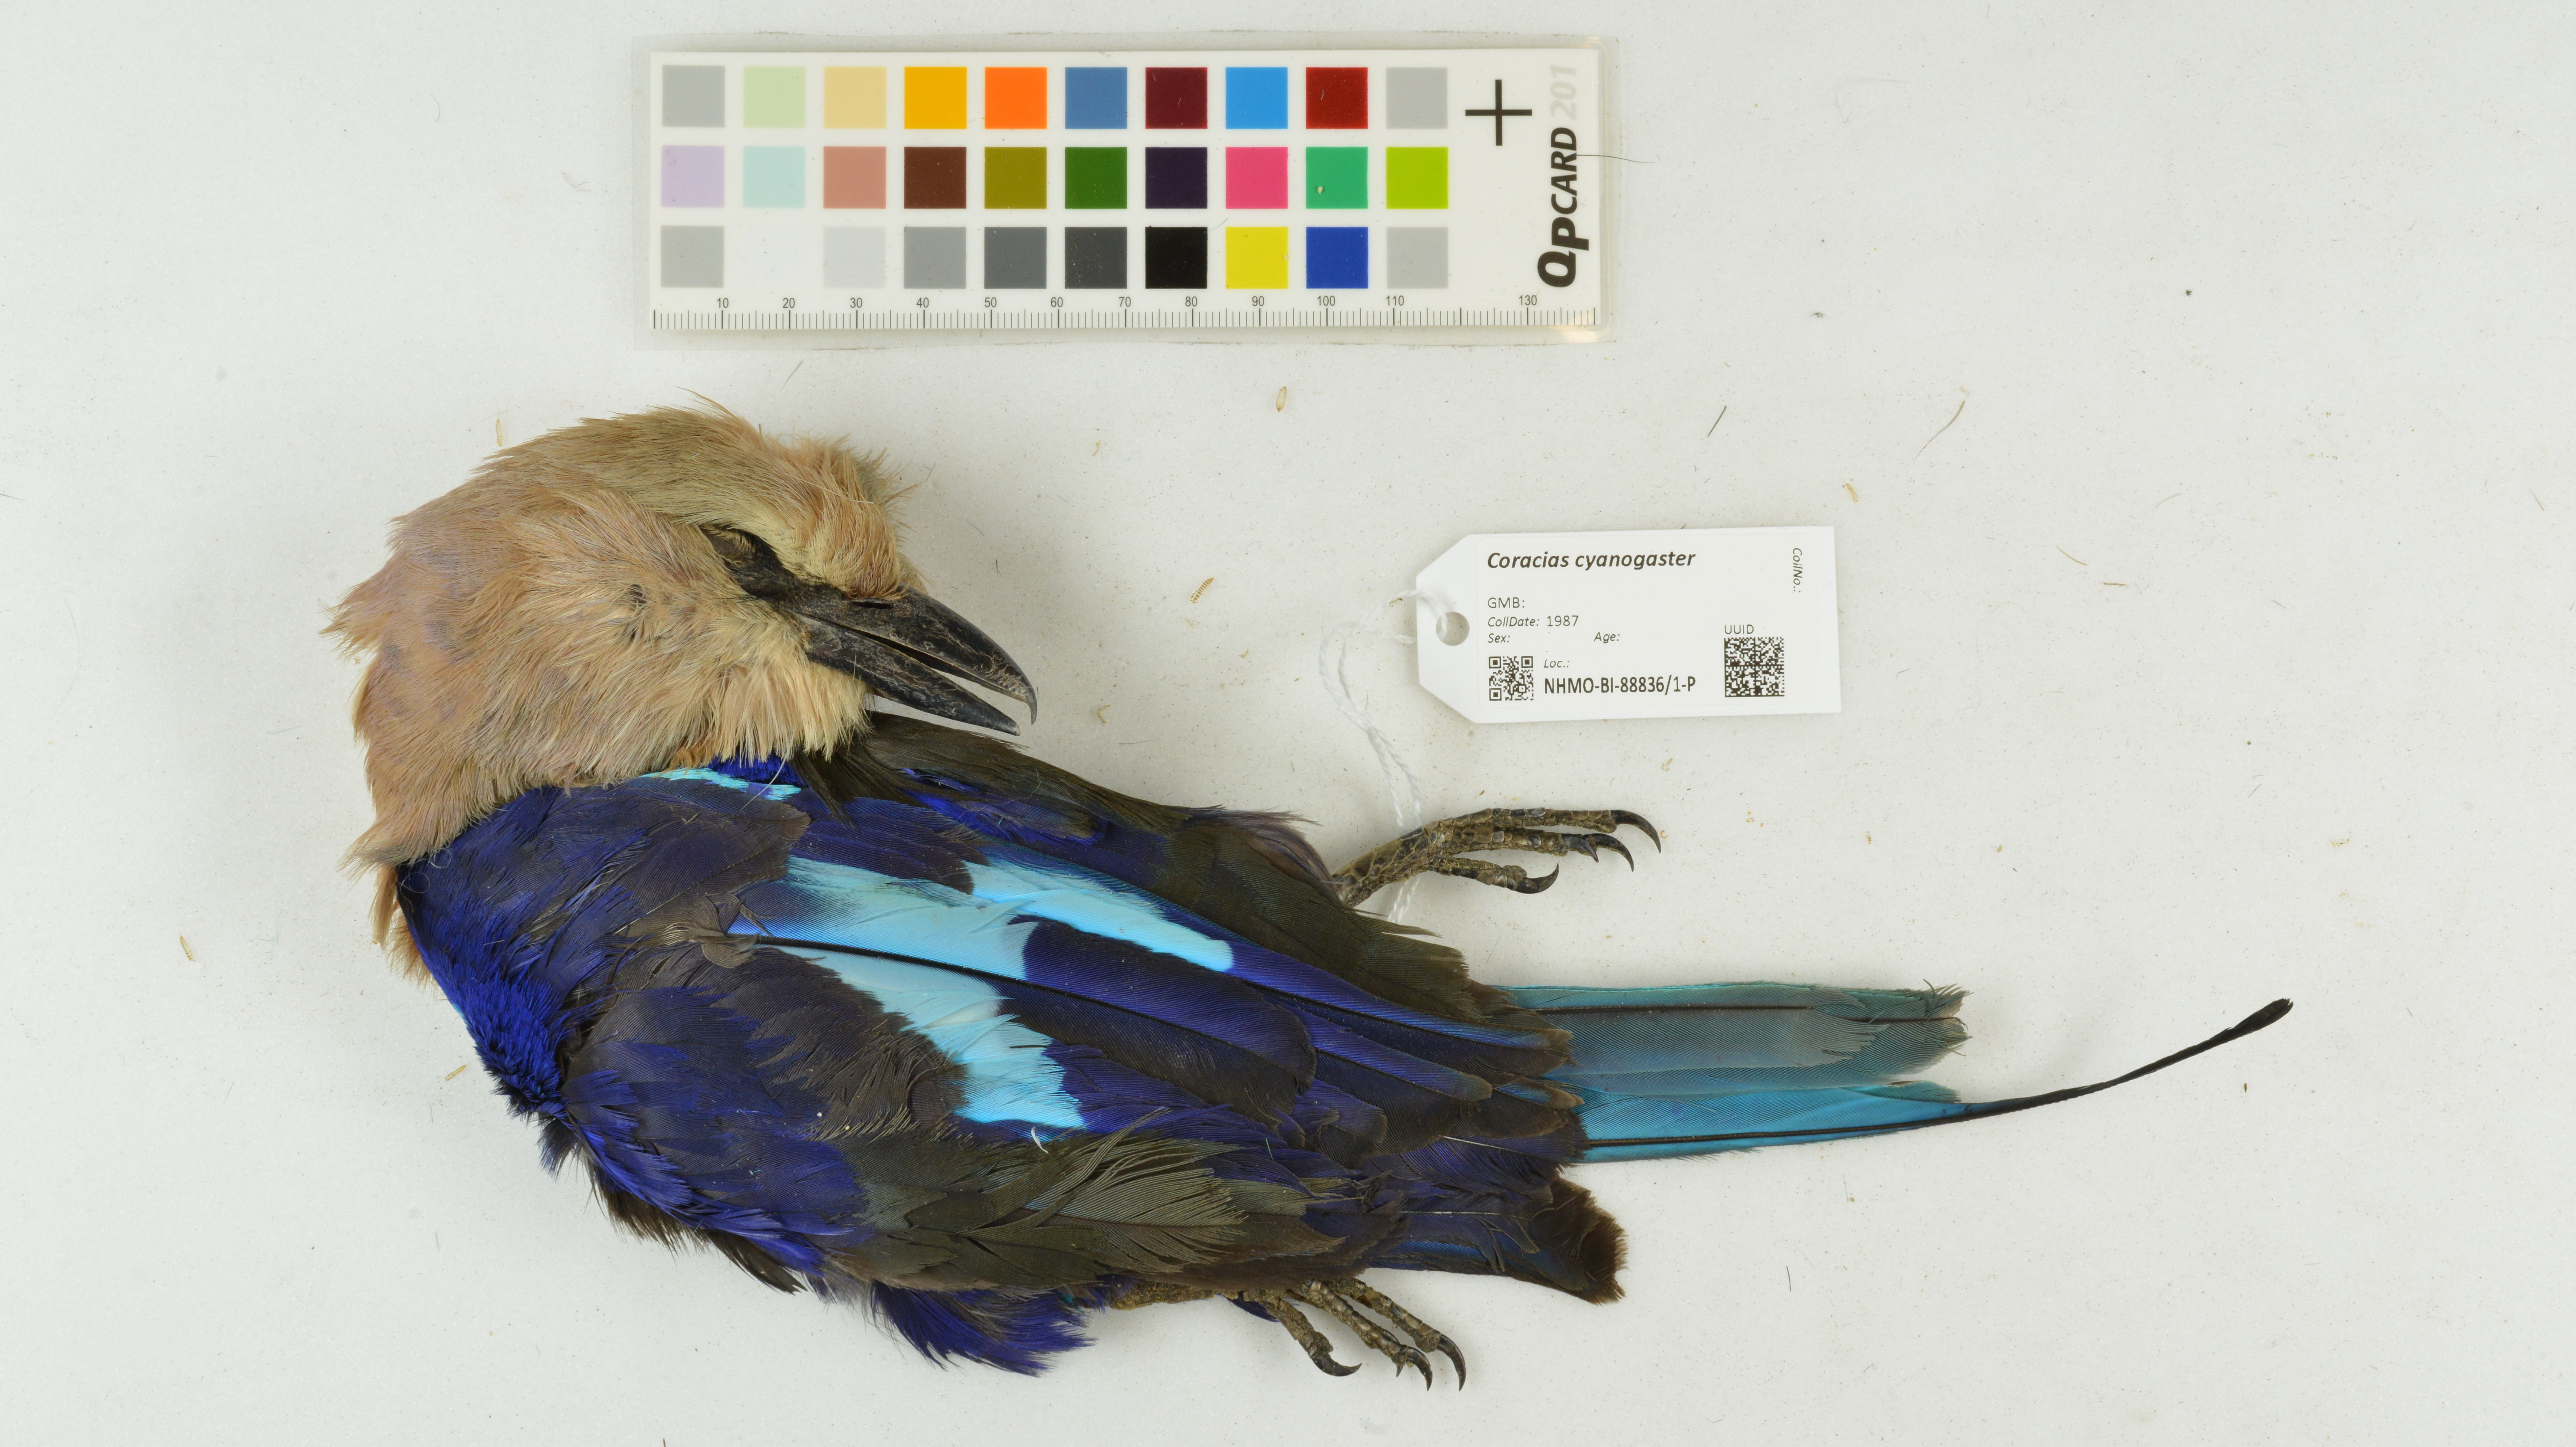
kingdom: Animalia
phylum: Chordata
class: Aves
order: Coraciiformes
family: Coraciidae
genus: Coracias
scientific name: Coracias cyanogaster
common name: Blue-bellied roller
